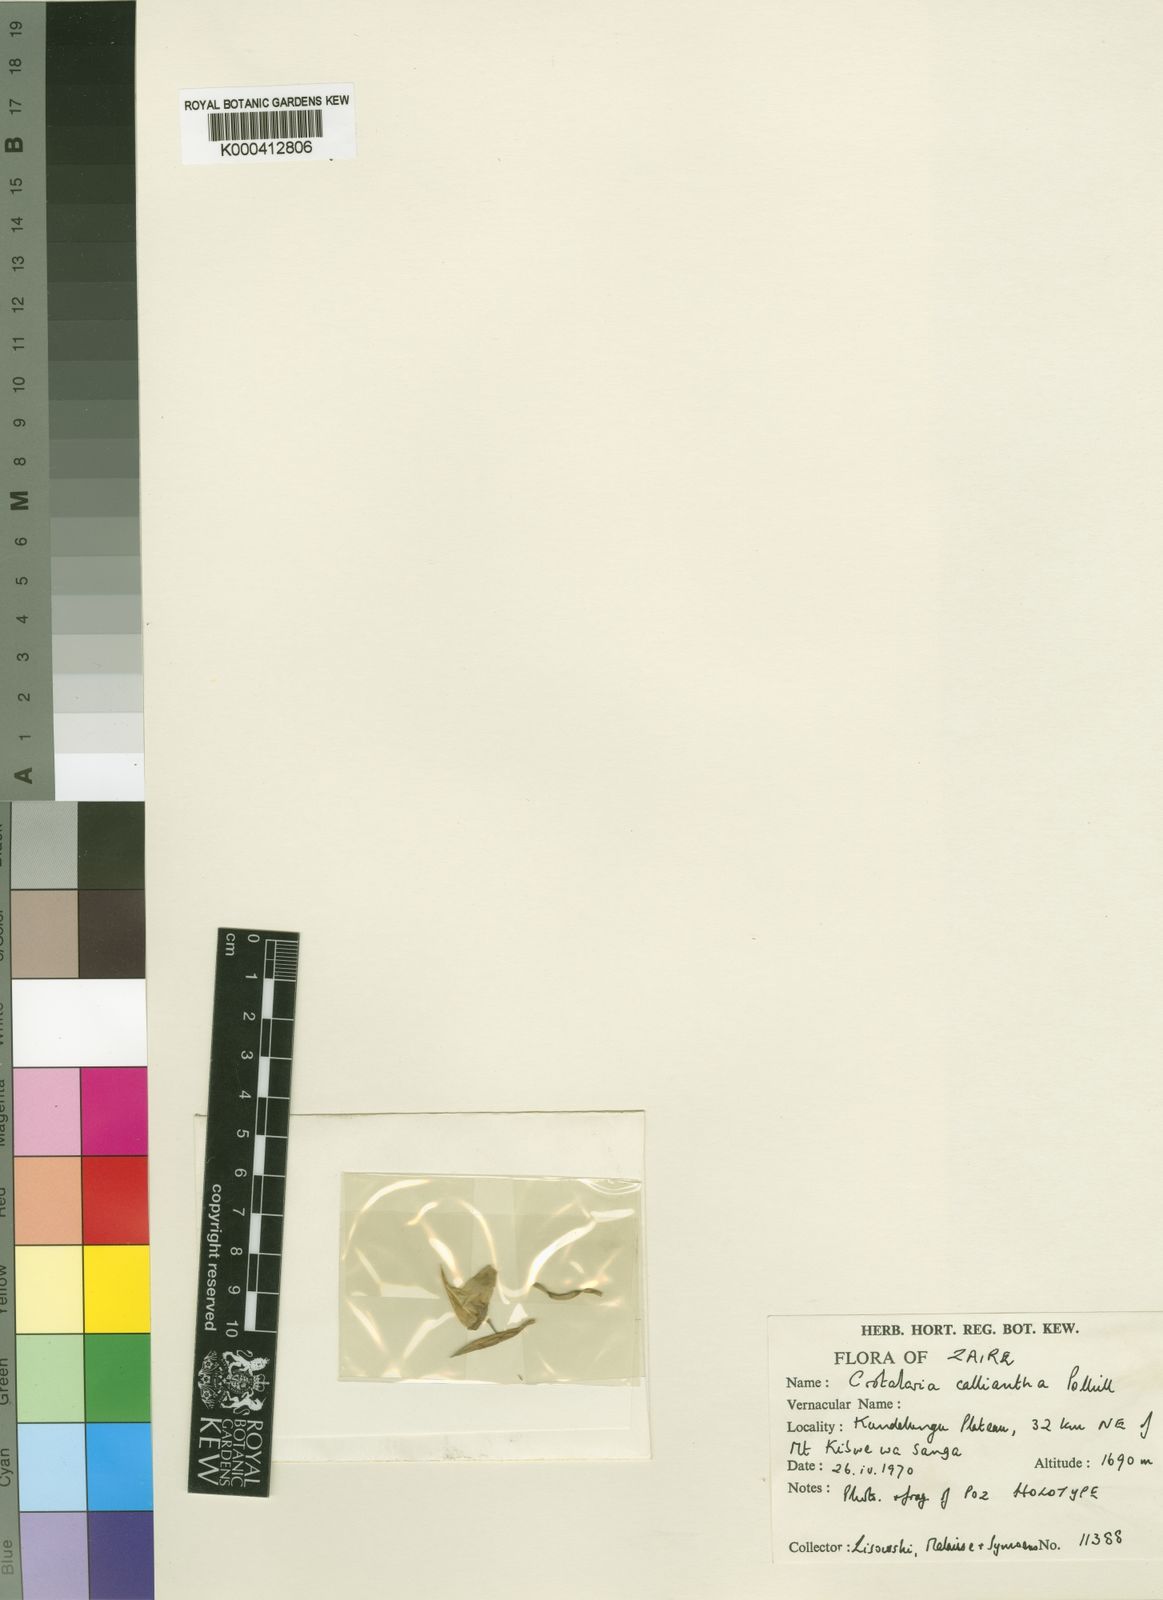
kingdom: Plantae
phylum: Tracheophyta
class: Magnoliopsida
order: Fabales
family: Fabaceae
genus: Crotalaria
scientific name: Crotalaria calliantha
